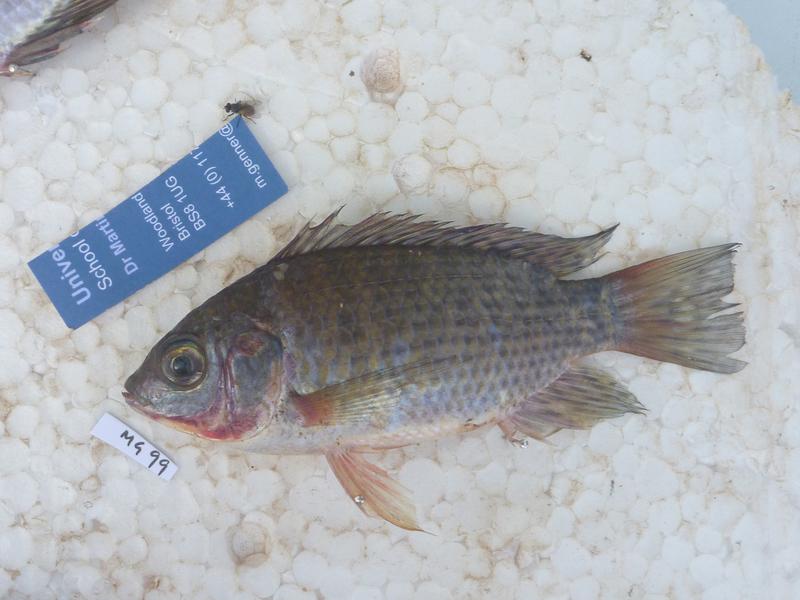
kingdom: Animalia
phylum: Chordata
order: Perciformes
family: Cichlidae
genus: Oreochromis
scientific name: Oreochromis leucostictus
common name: Blue spotted tilapia
